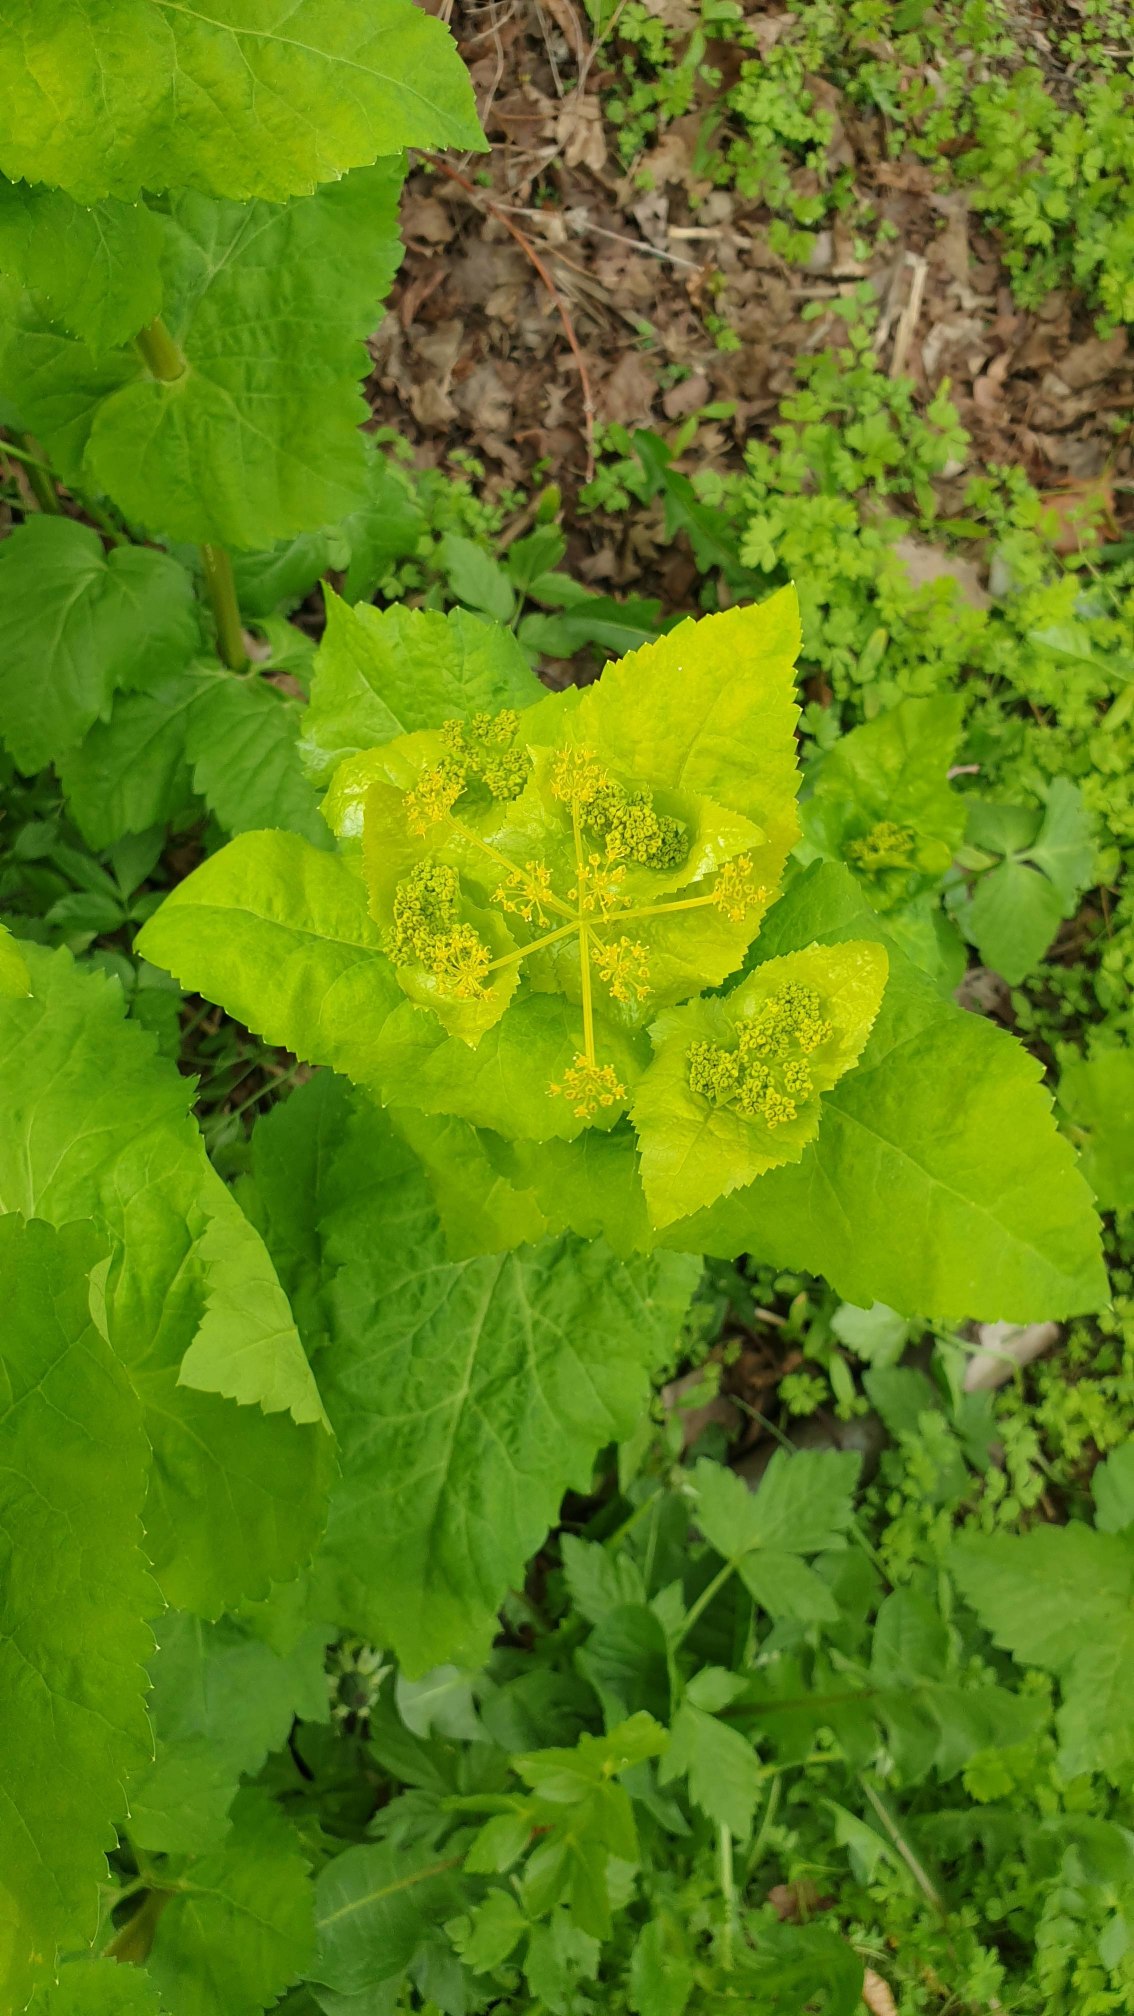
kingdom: Plantae
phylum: Tracheophyta
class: Magnoliopsida
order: Apiales
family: Apiaceae
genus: Smyrnium
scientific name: Smyrnium perfoliatum
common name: Lundgylden
